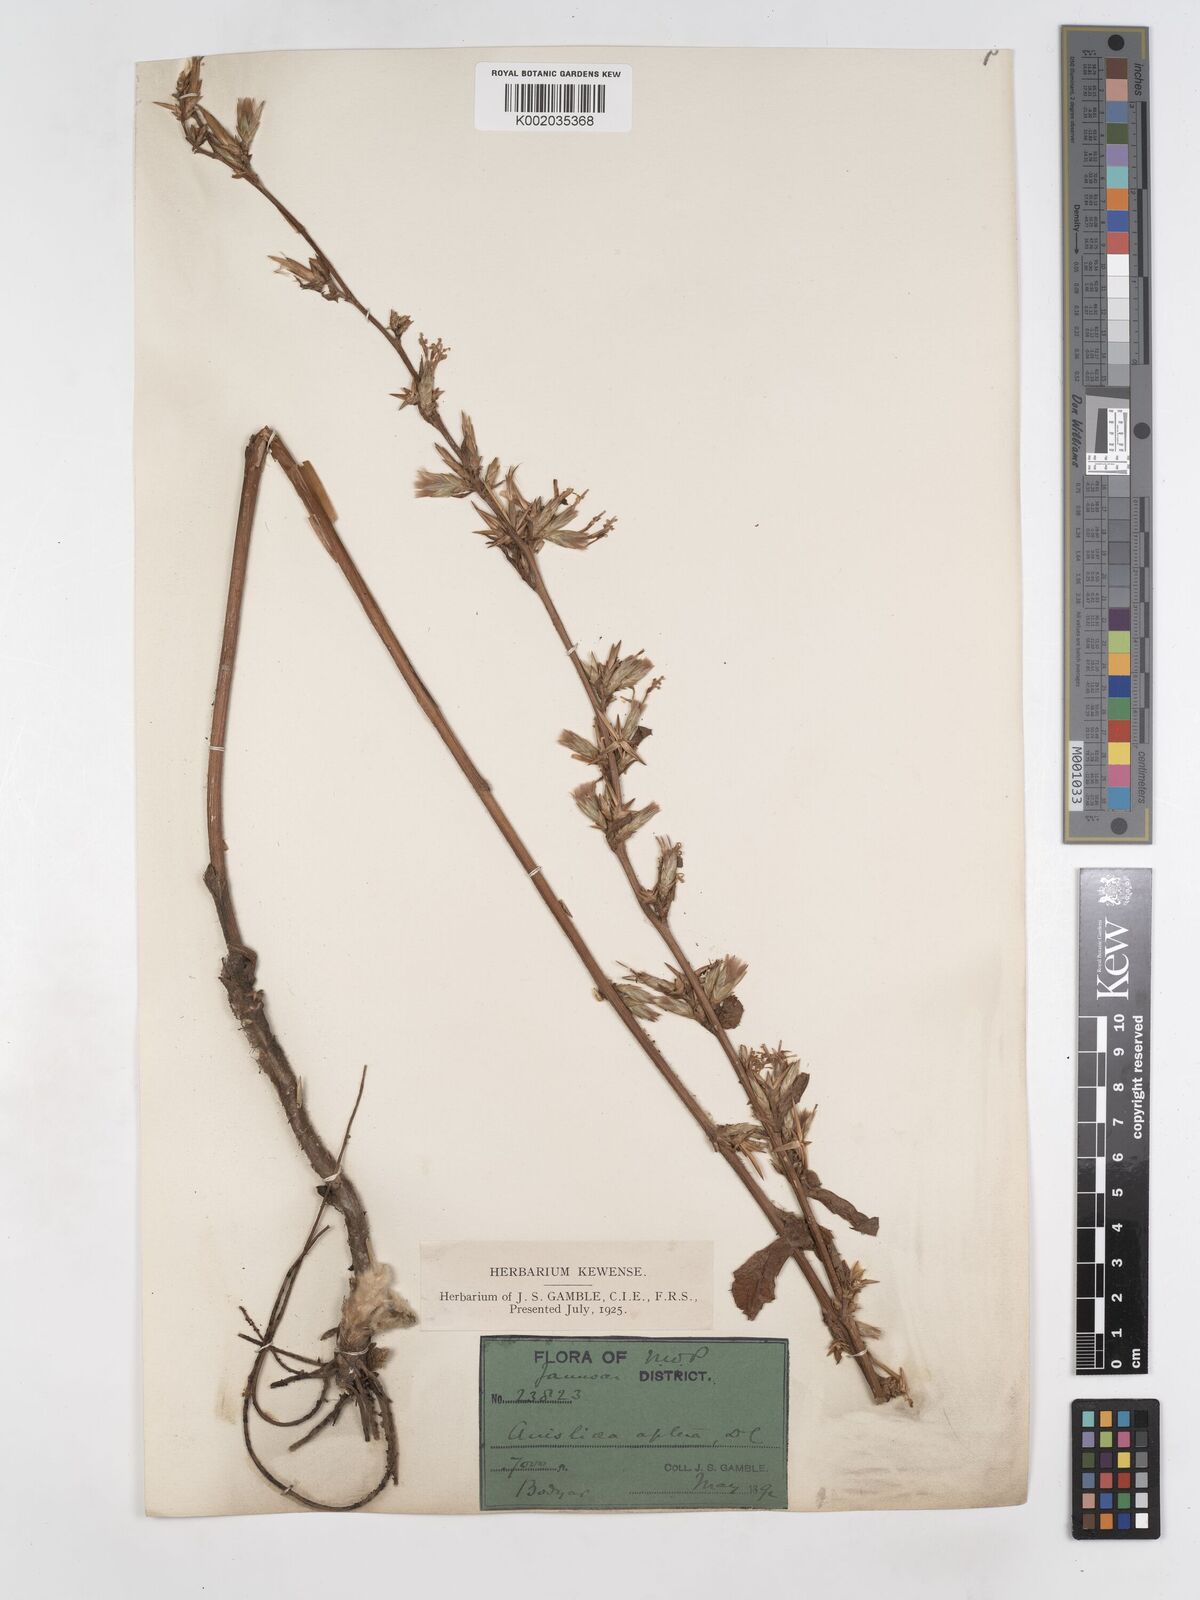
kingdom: Plantae
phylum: Tracheophyta
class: Magnoliopsida
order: Asterales
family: Asteraceae
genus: Ainsliaea
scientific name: Ainsliaea aptera
